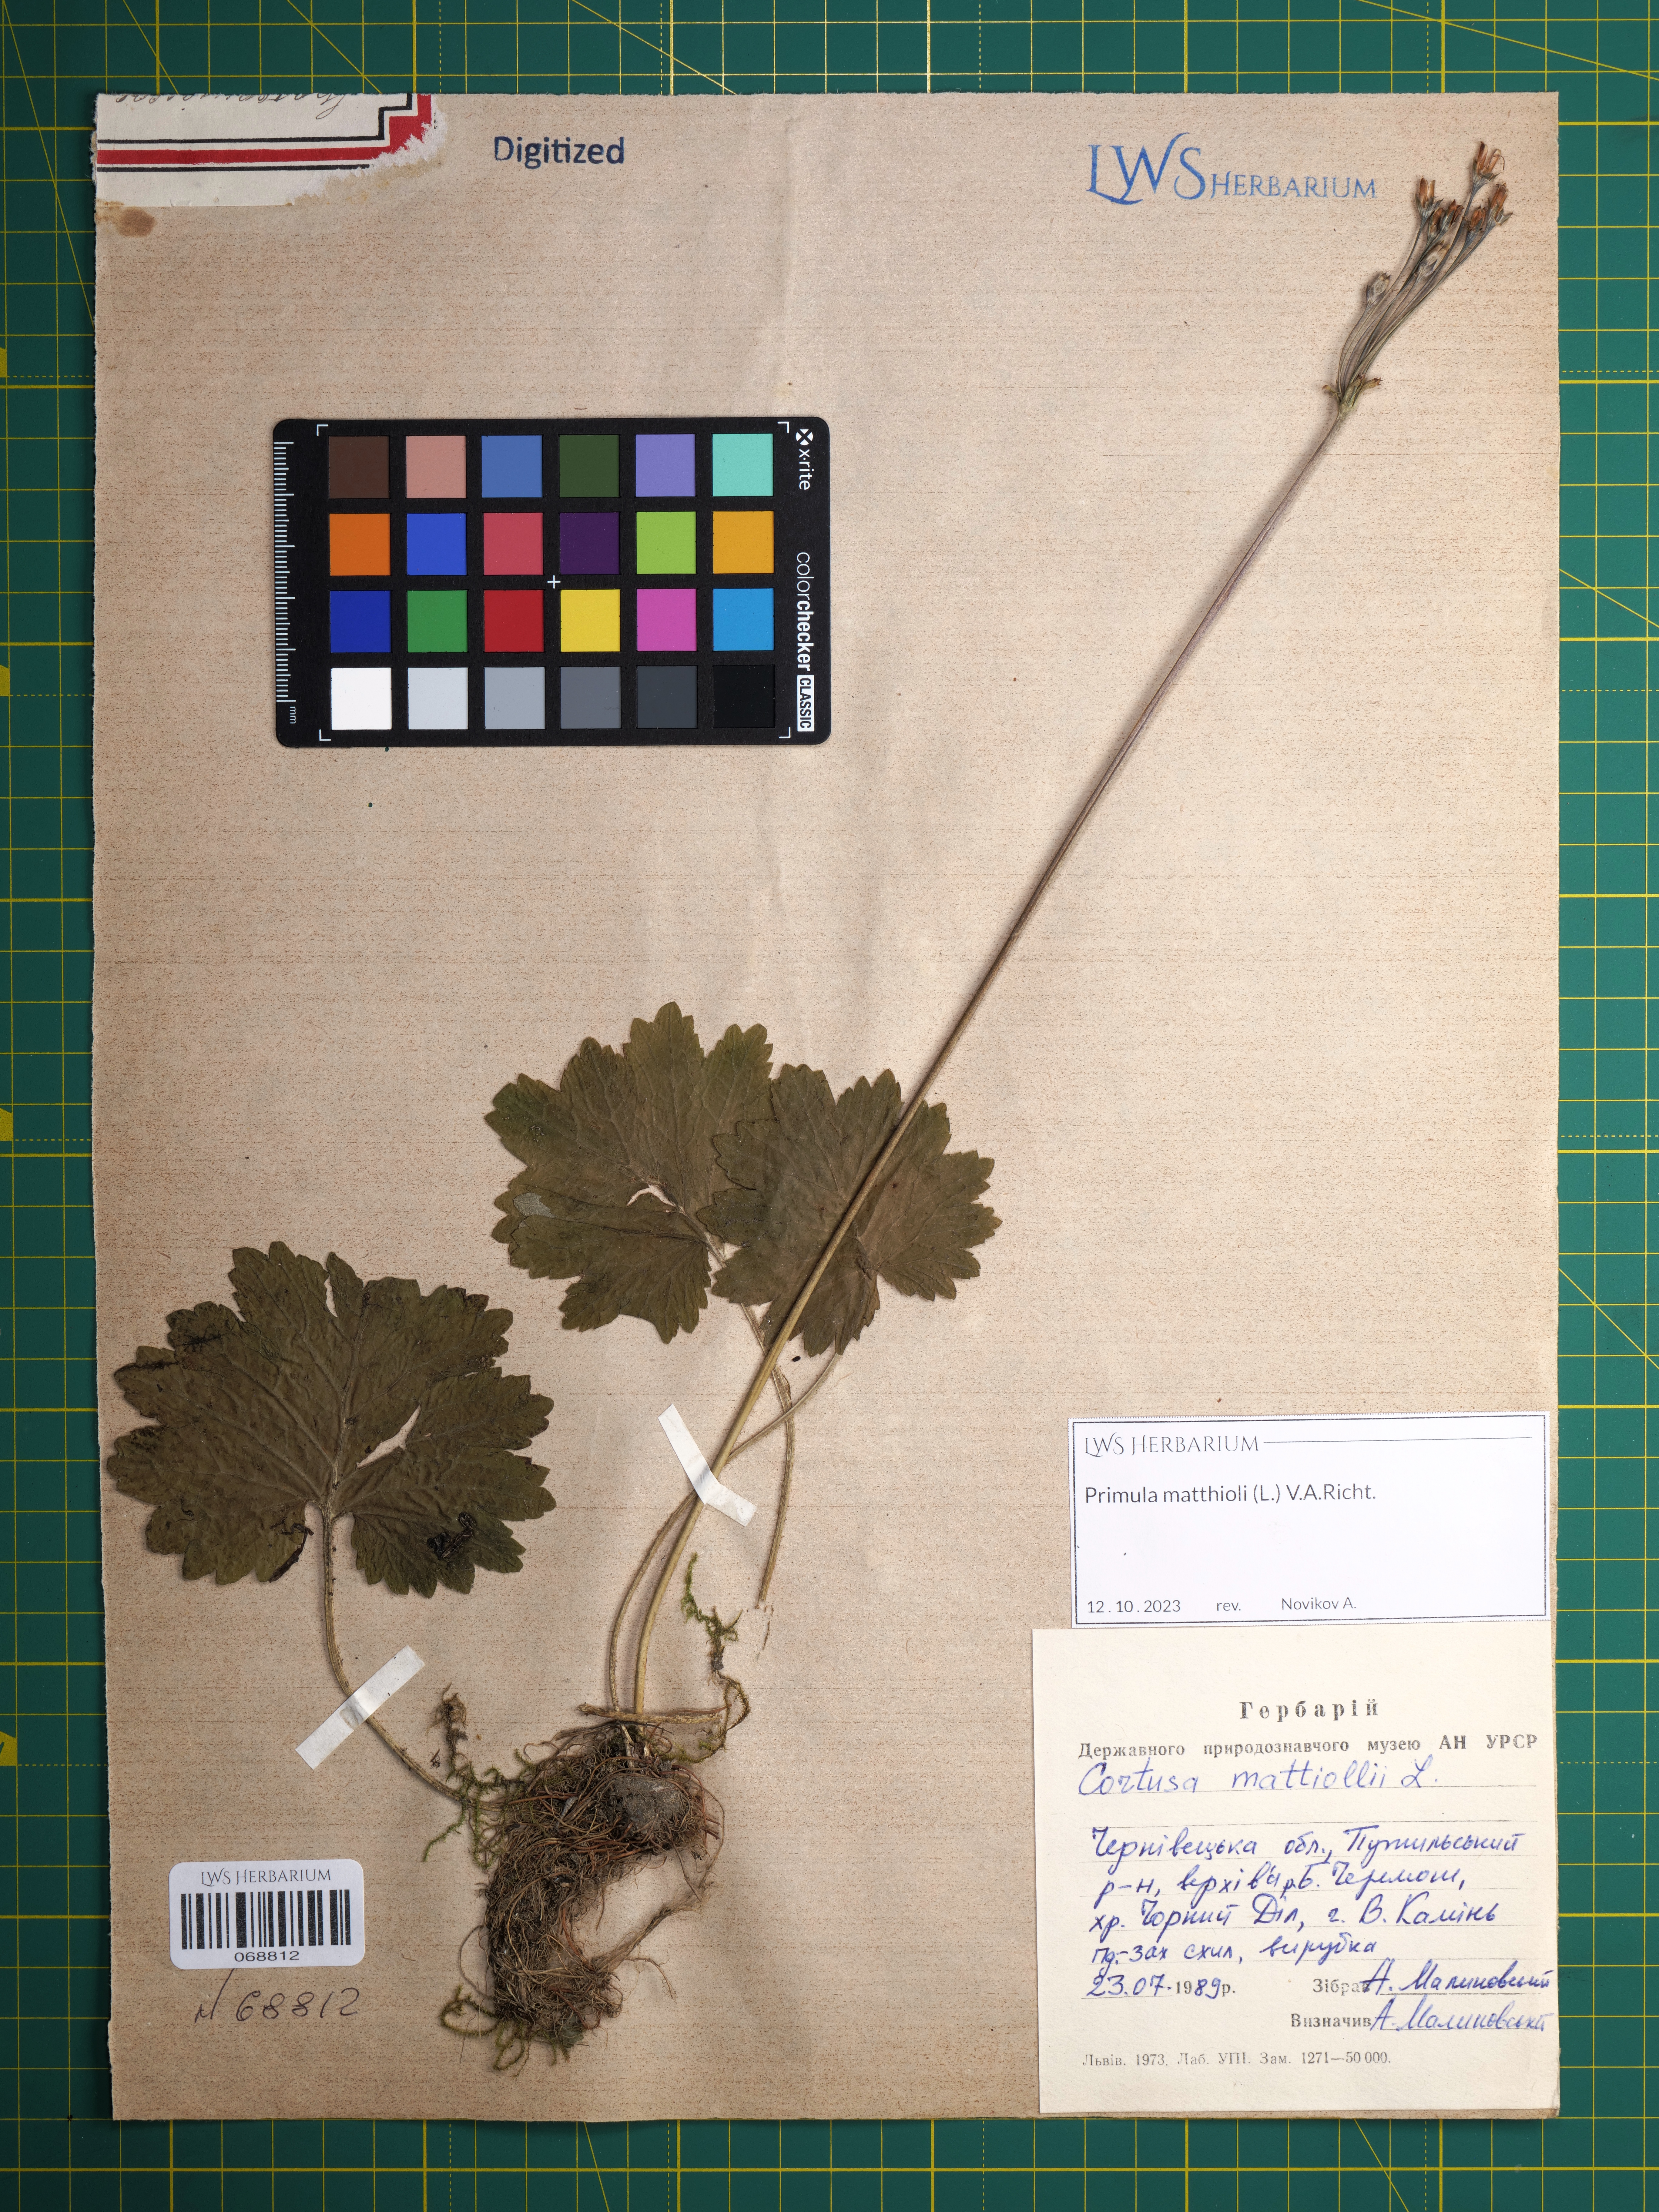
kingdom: Plantae
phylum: Tracheophyta
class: Magnoliopsida
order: Ericales
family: Primulaceae
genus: Primula
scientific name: Primula matthioli
